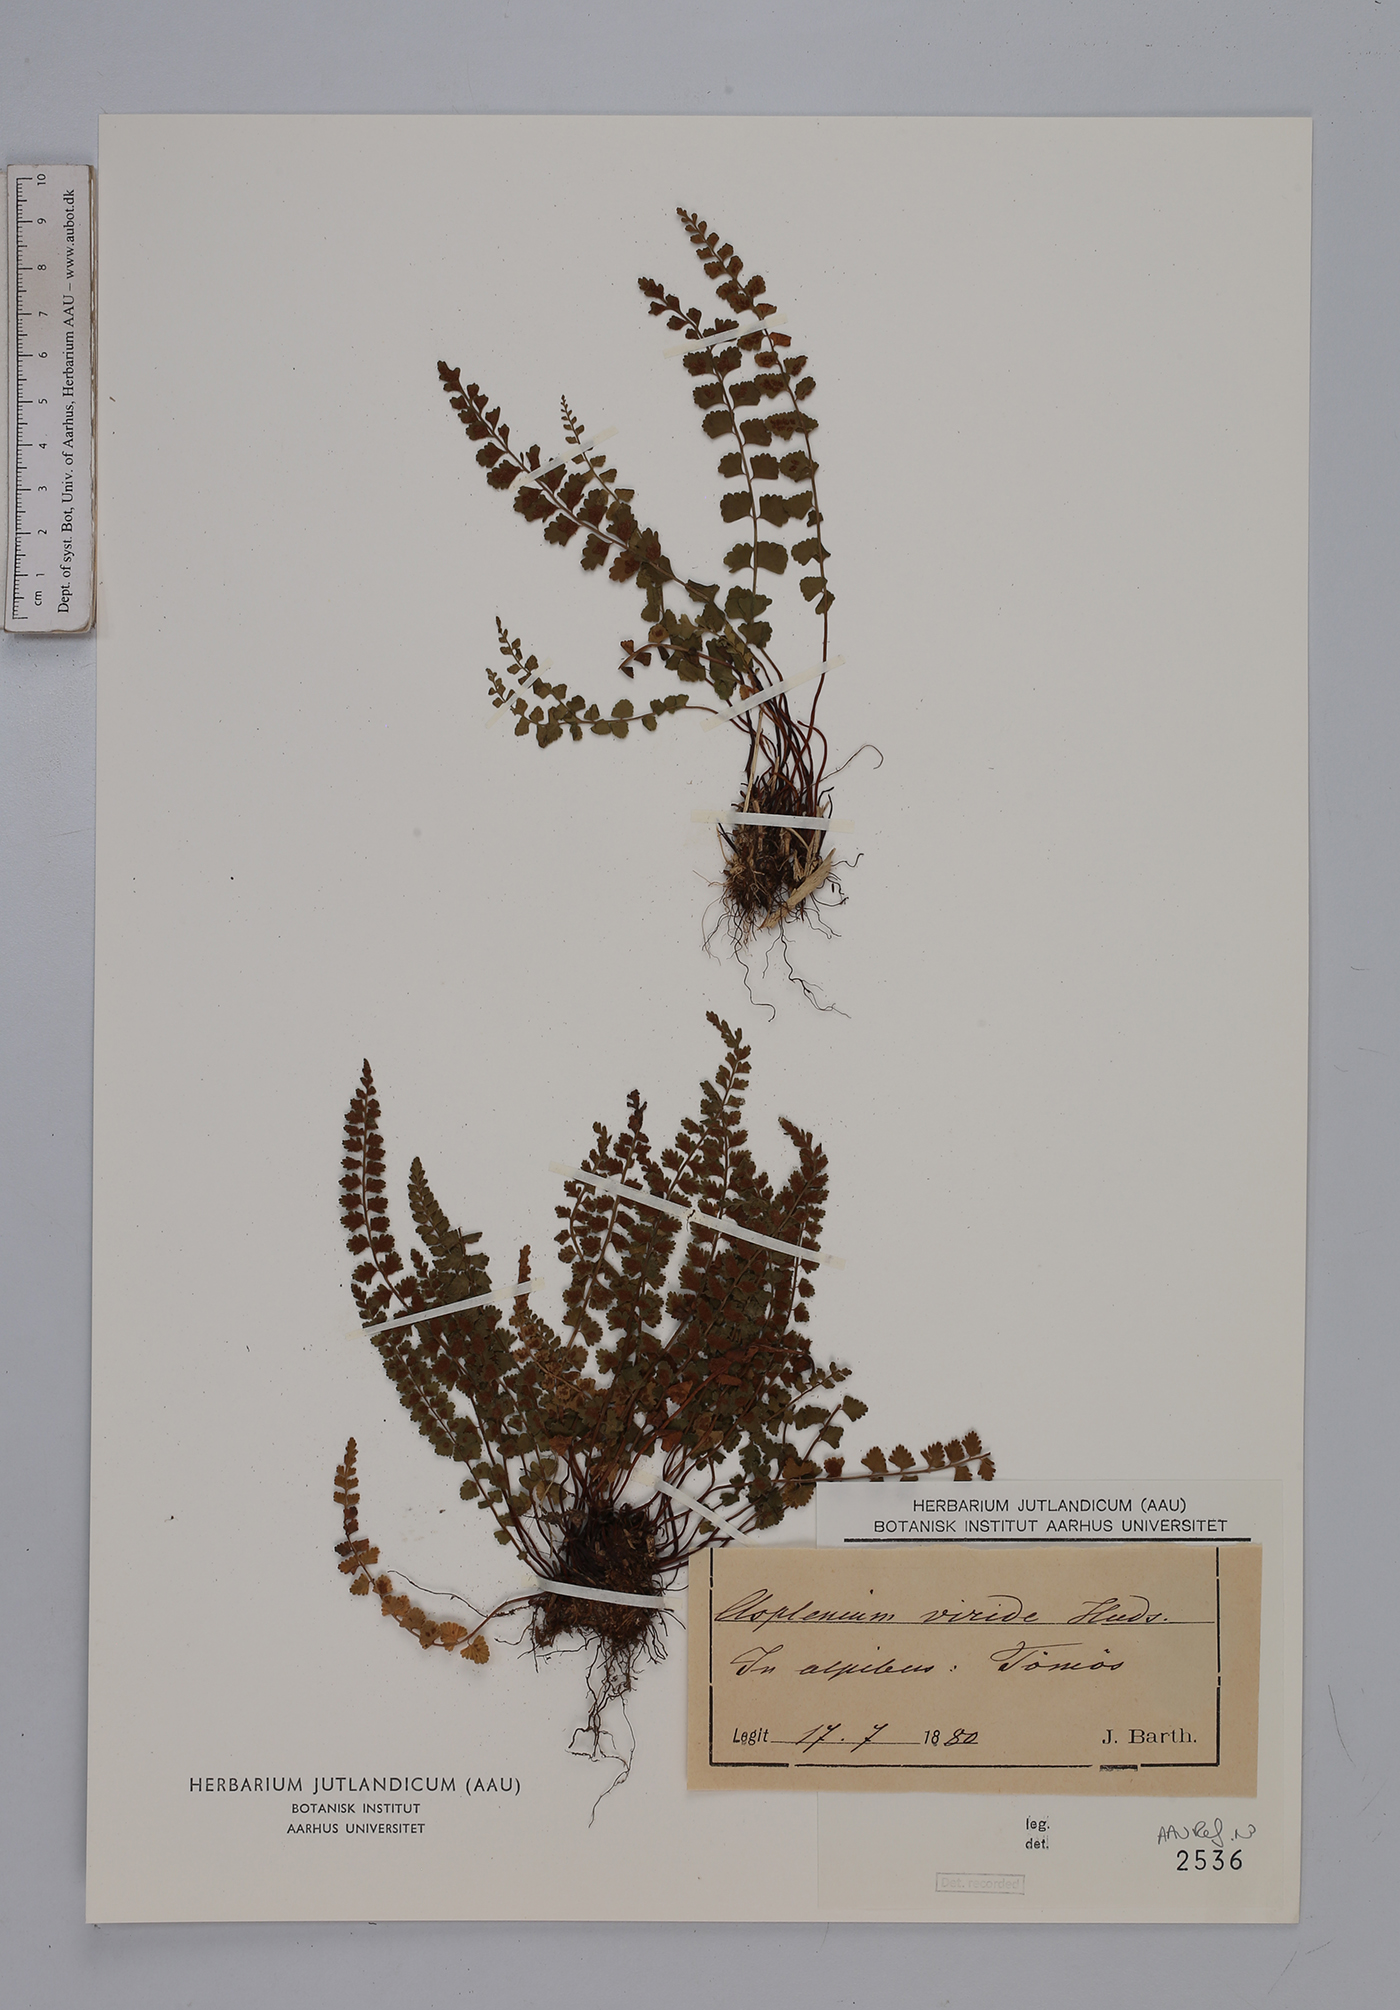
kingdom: Plantae
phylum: Tracheophyta
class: Polypodiopsida
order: Polypodiales
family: Aspleniaceae
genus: Asplenium
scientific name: Asplenium viride
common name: Green spleenwort
